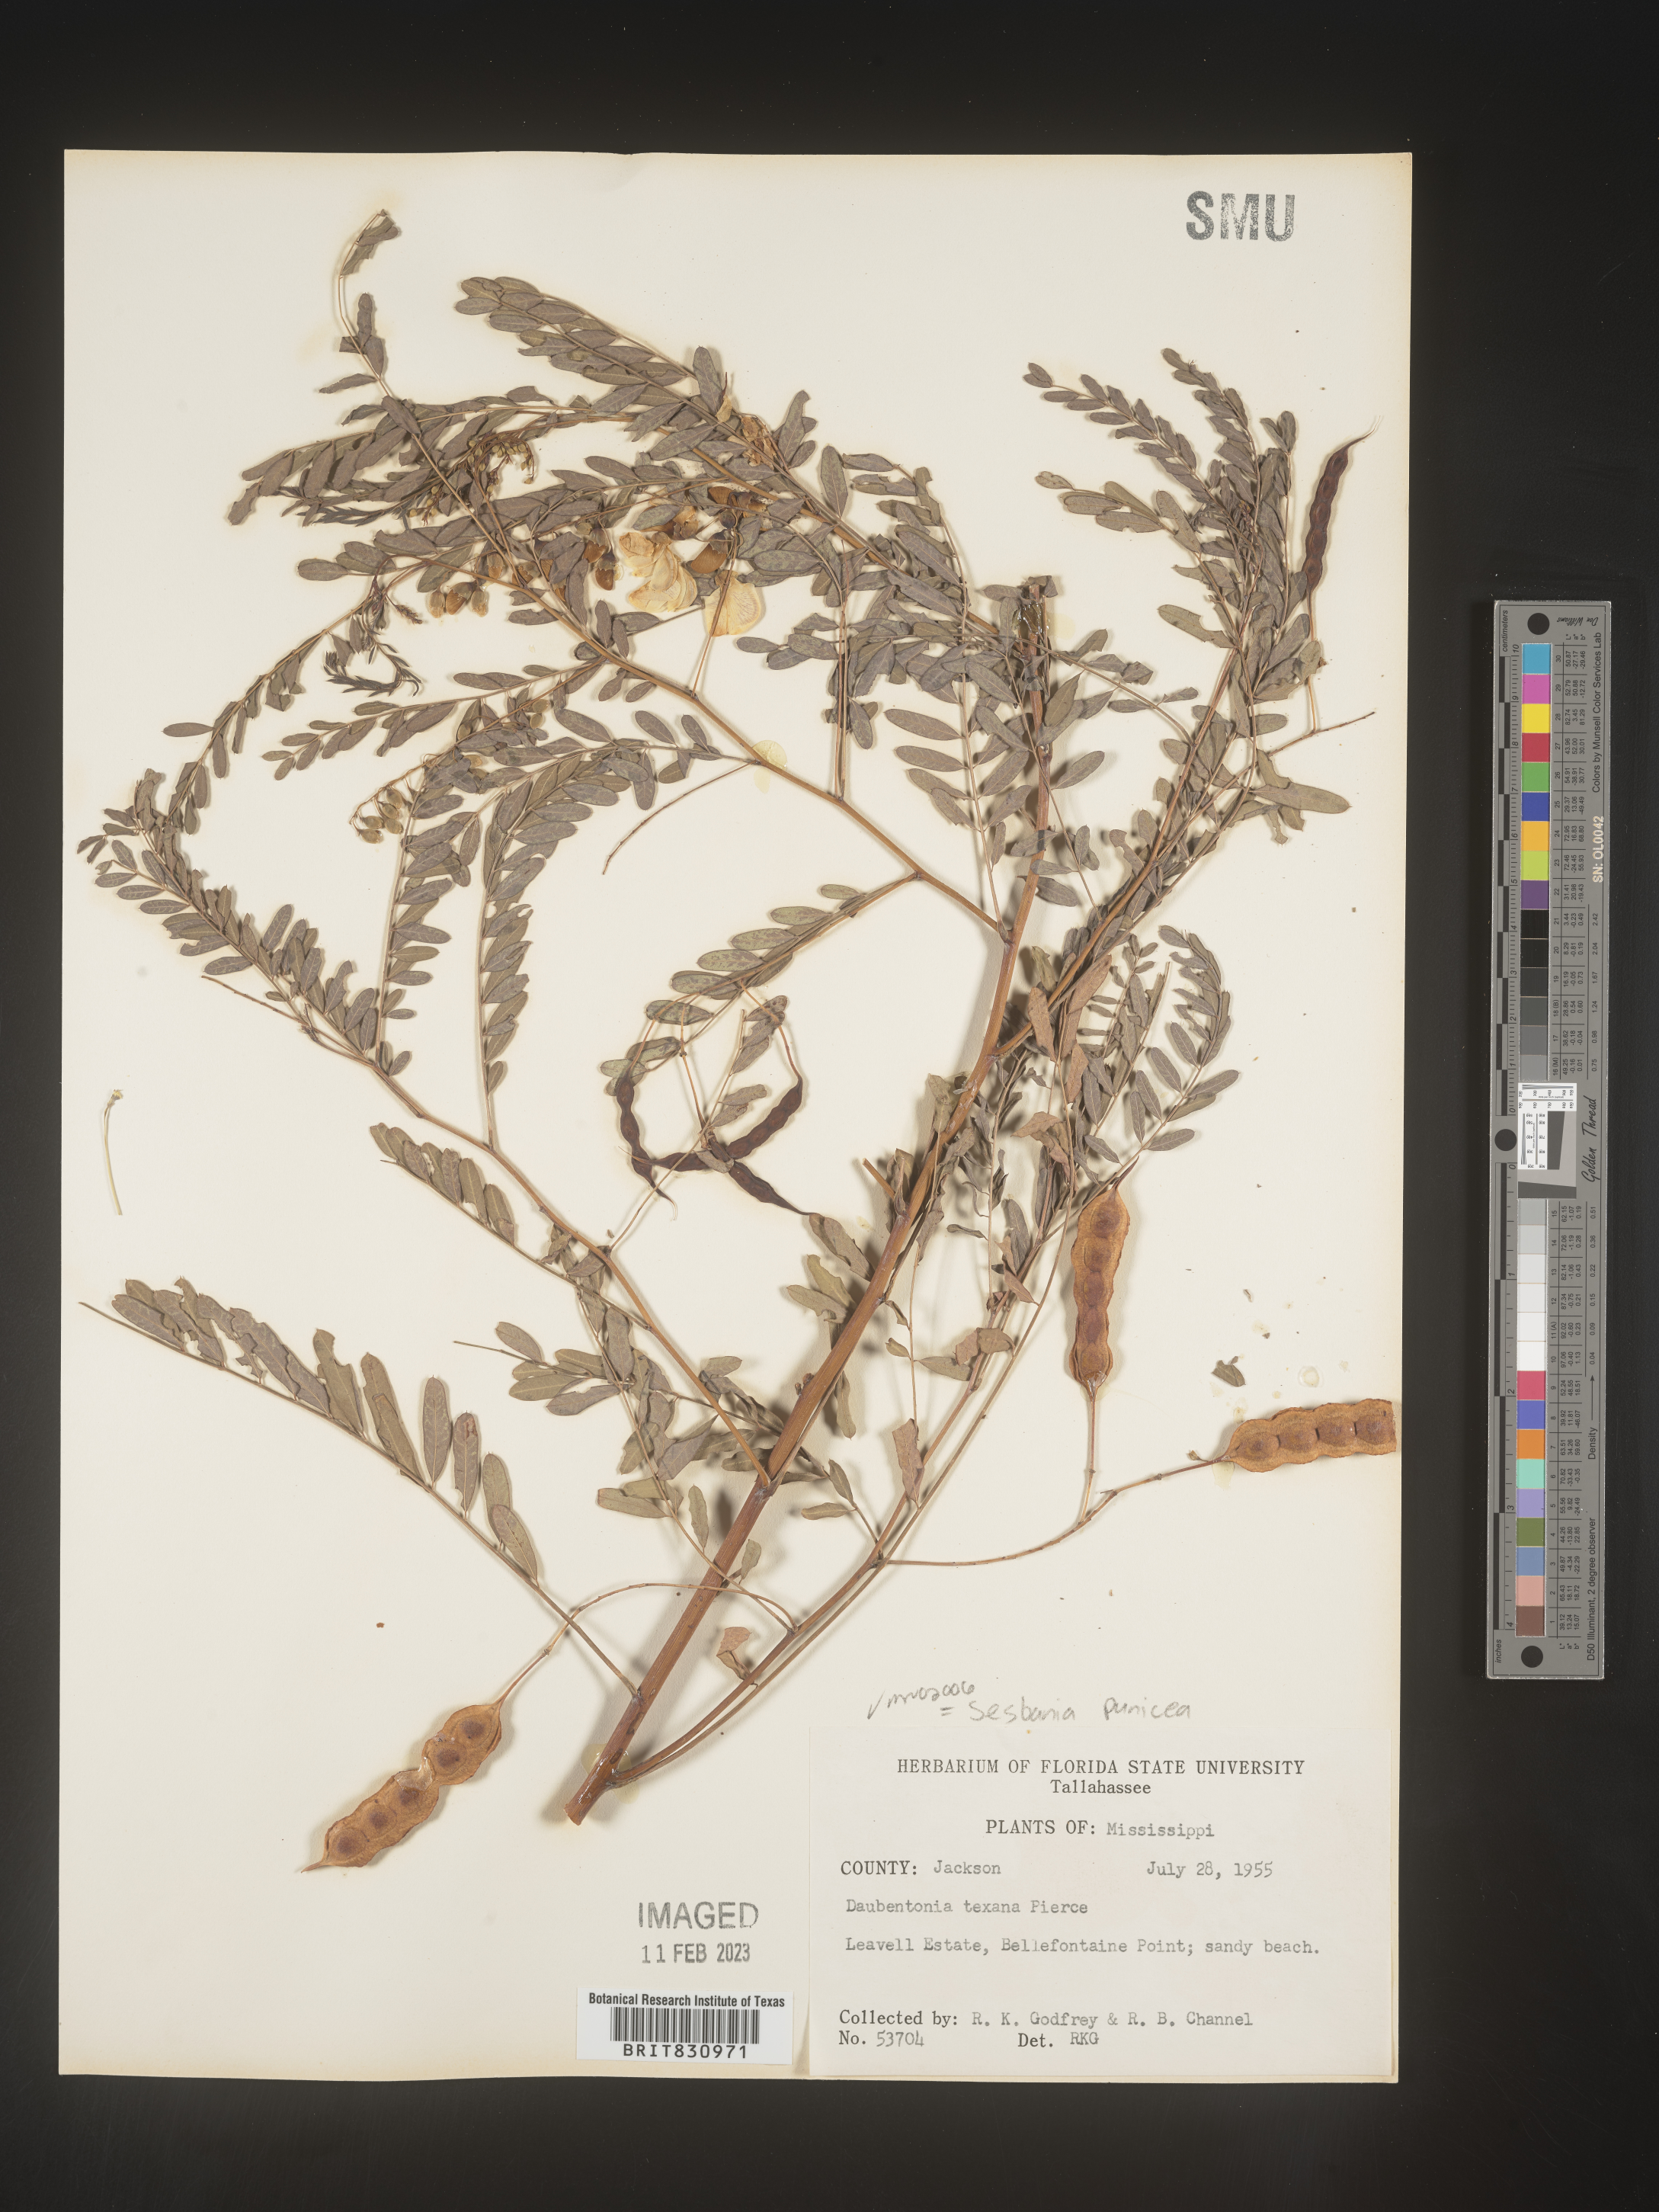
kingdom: Plantae
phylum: Tracheophyta
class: Magnoliopsida
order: Fabales
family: Fabaceae
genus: Sesbania
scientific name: Sesbania punicea
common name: Rattlebox
